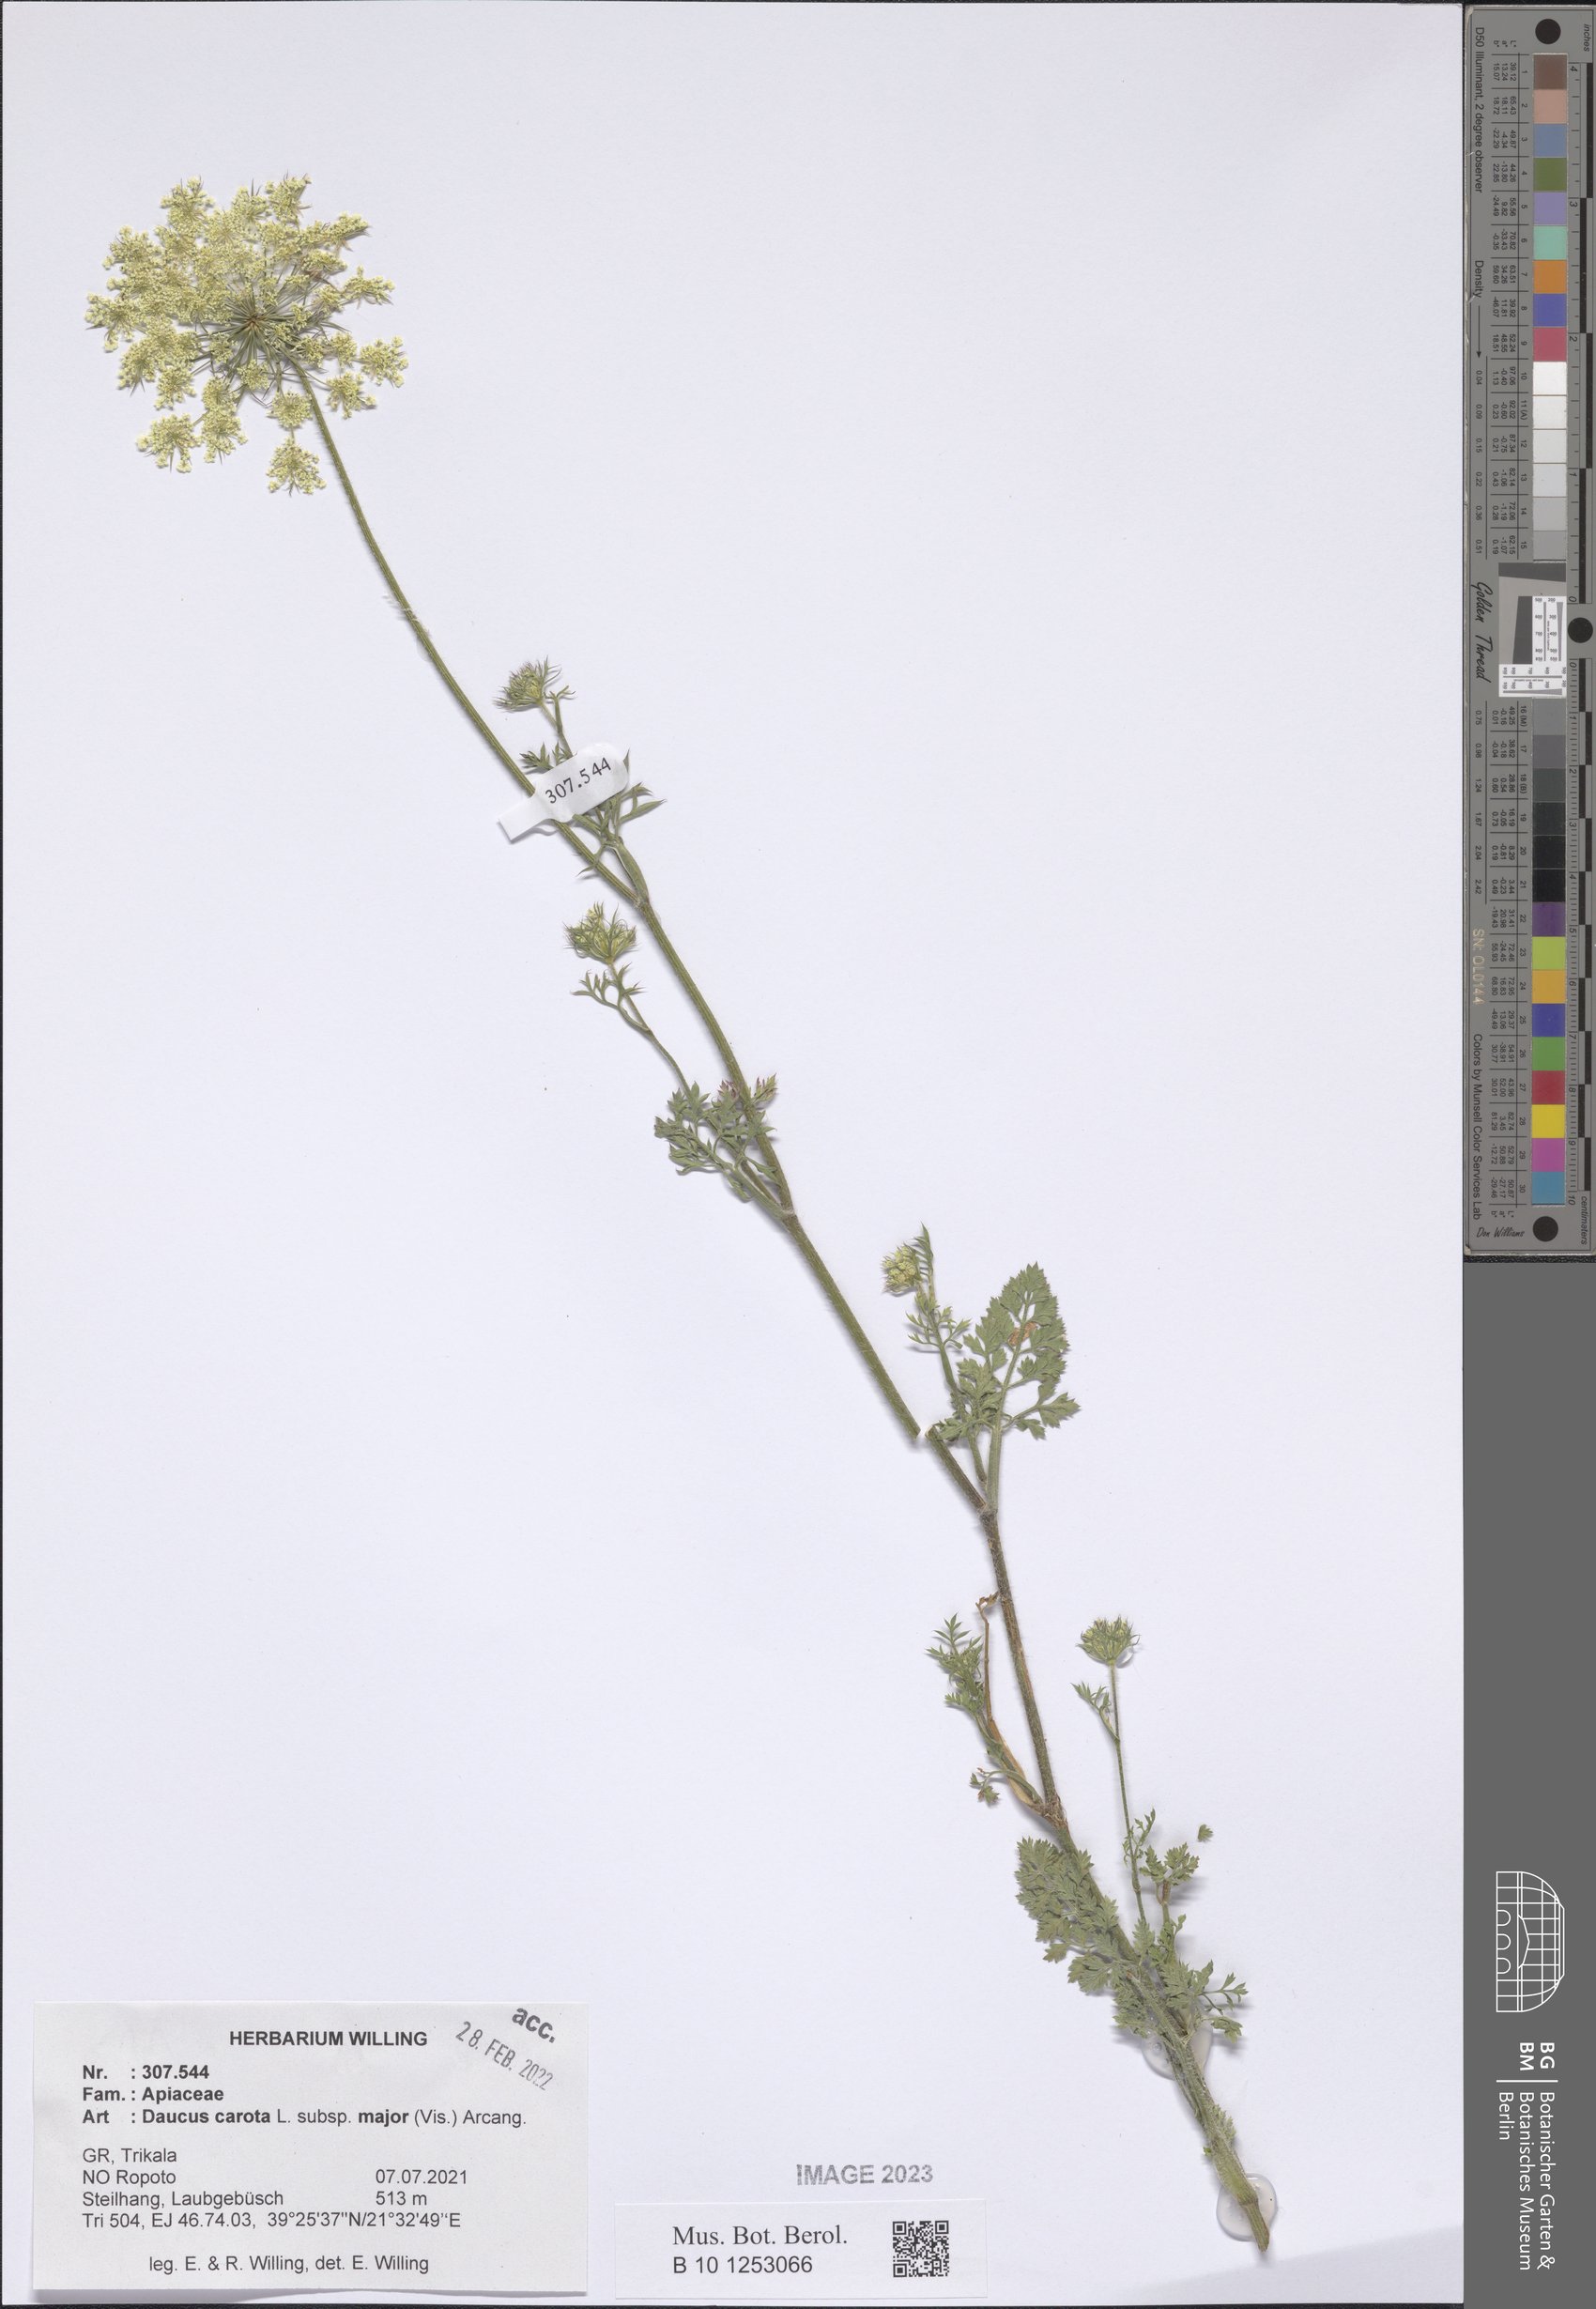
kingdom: Plantae
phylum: Tracheophyta
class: Magnoliopsida
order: Apiales
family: Apiaceae
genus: Daucus
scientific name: Daucus carota
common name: Wild carrot
